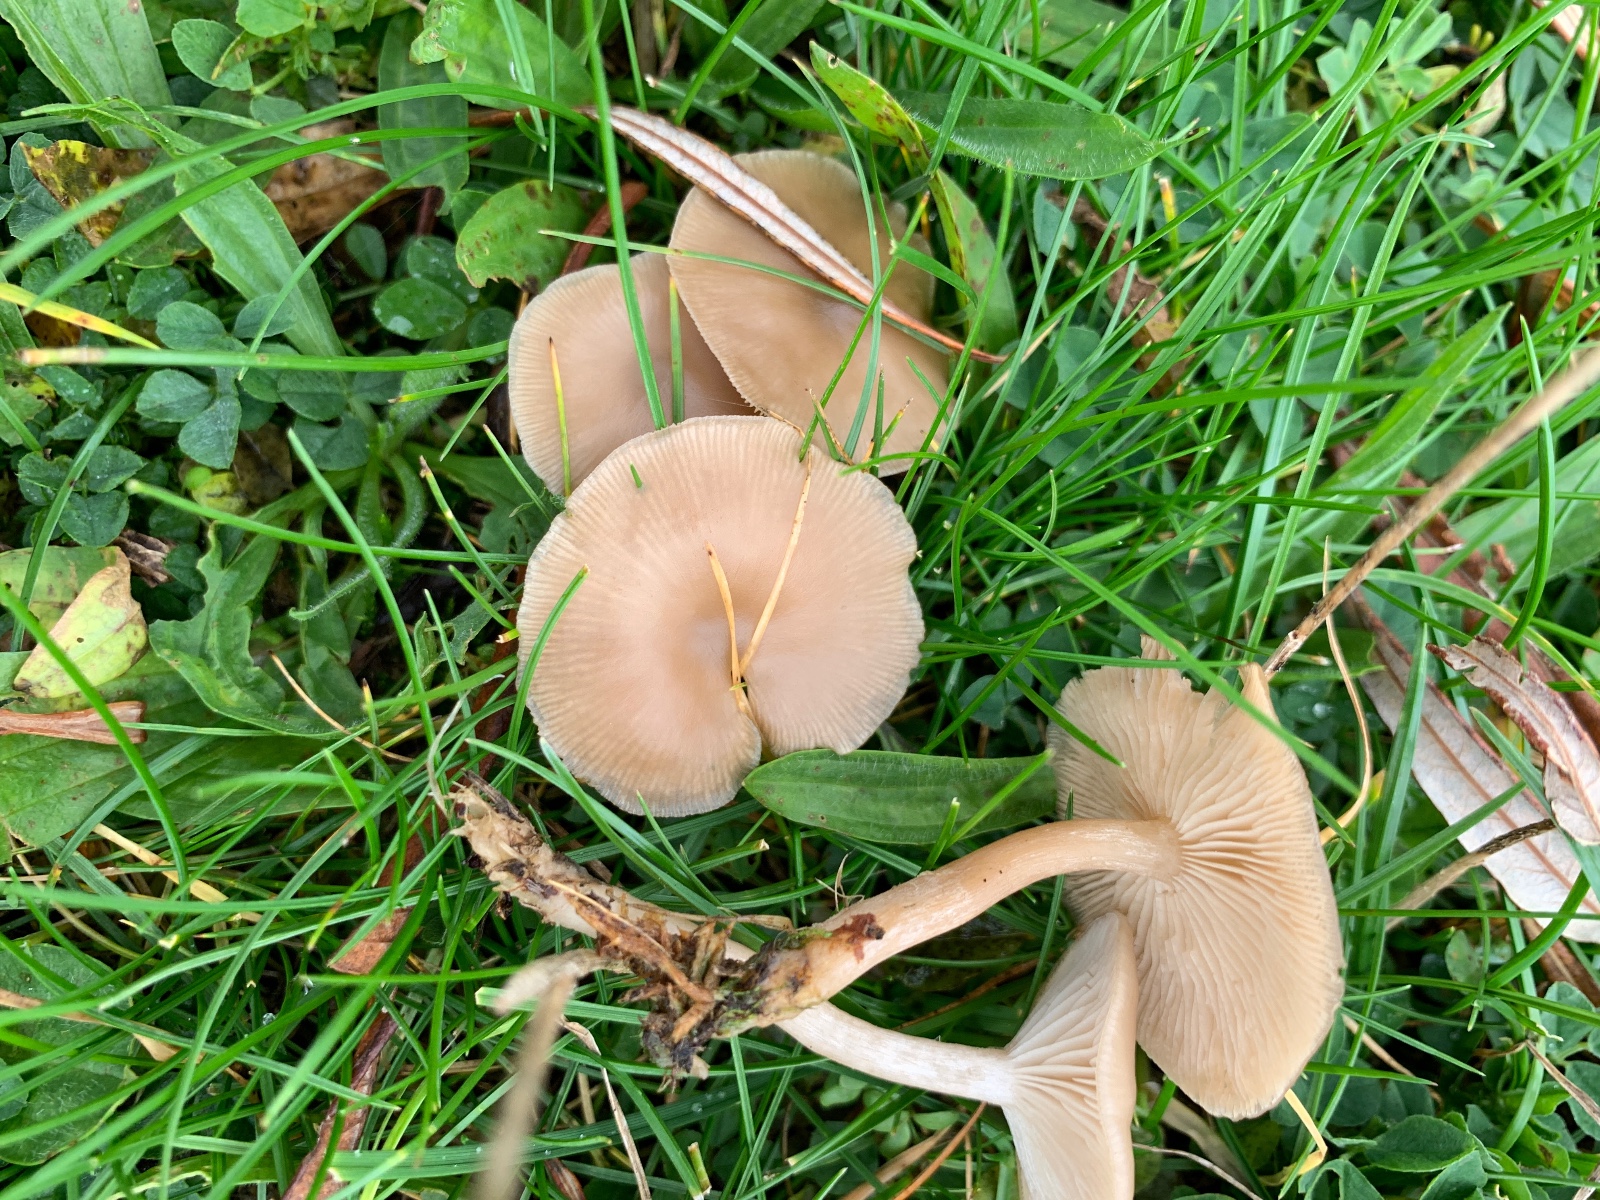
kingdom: Fungi
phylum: Basidiomycota
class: Agaricomycetes
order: Agaricales
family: Tricholomataceae
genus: Clitocybe
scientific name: Clitocybe amarescens
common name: gødnings-tragthat
